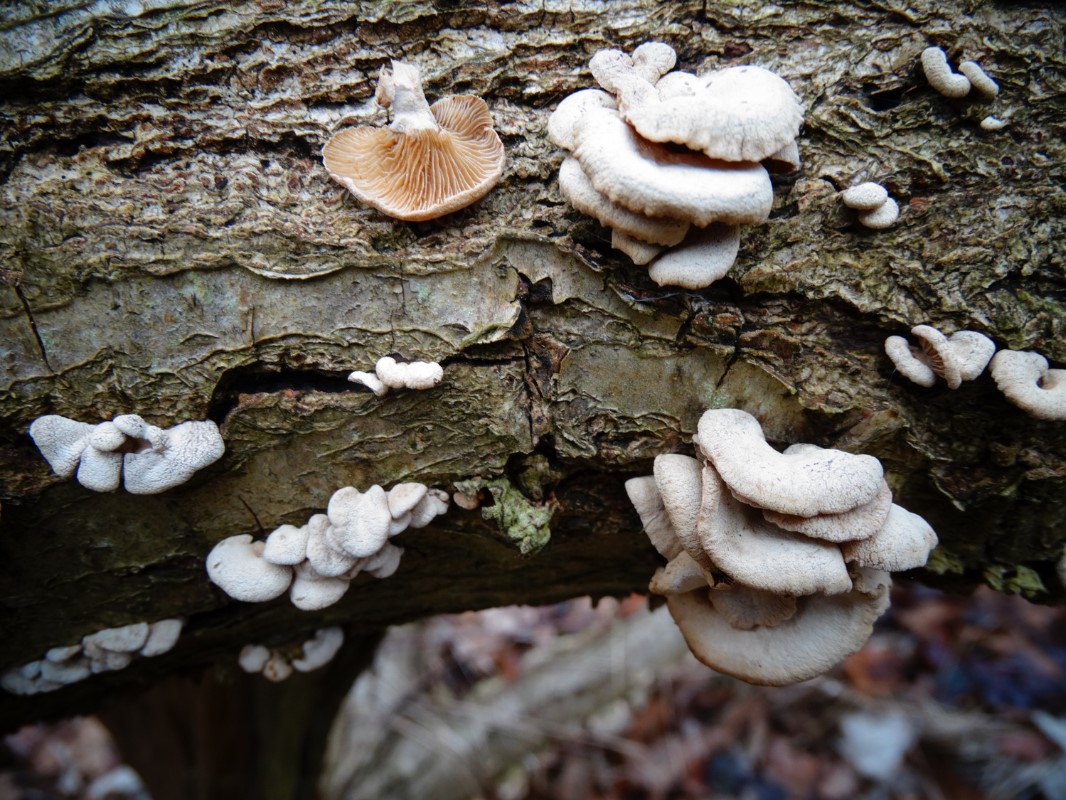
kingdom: Fungi
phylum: Basidiomycota
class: Agaricomycetes
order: Agaricales
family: Mycenaceae
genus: Panellus
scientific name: Panellus stipticus
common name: kliddet epaulethat
